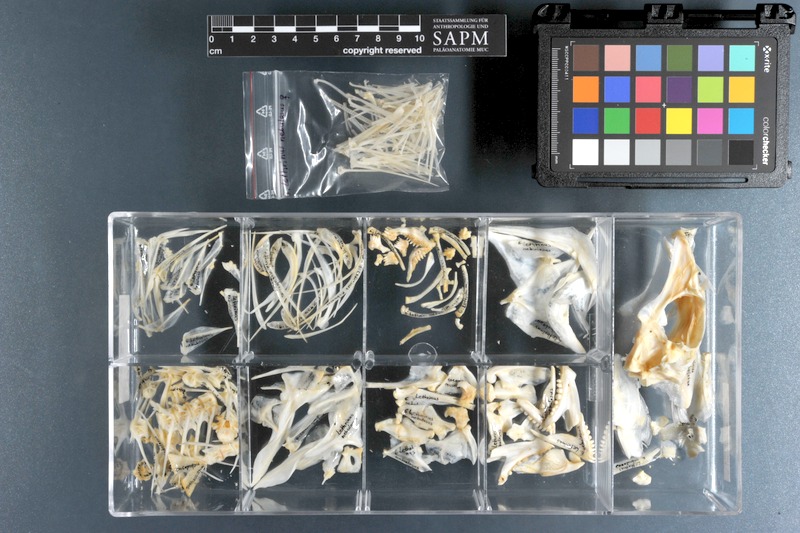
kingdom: Animalia
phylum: Chordata
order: Perciformes
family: Lethrinidae
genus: Lethrinus
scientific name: Lethrinus nebulosus
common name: Spangled emperor
